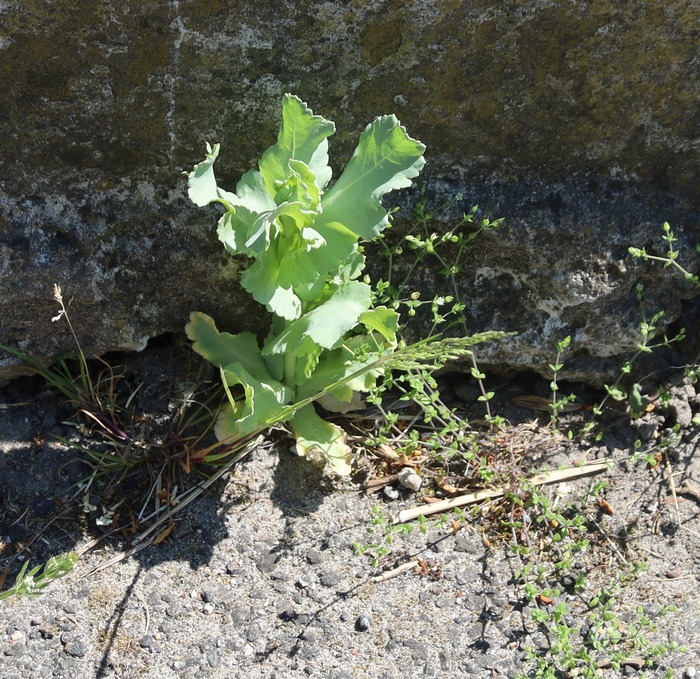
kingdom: Plantae
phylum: Tracheophyta
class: Magnoliopsida
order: Ranunculales
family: Papaveraceae
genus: Papaver
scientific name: Papaver somniferum
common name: Opium-valmue
